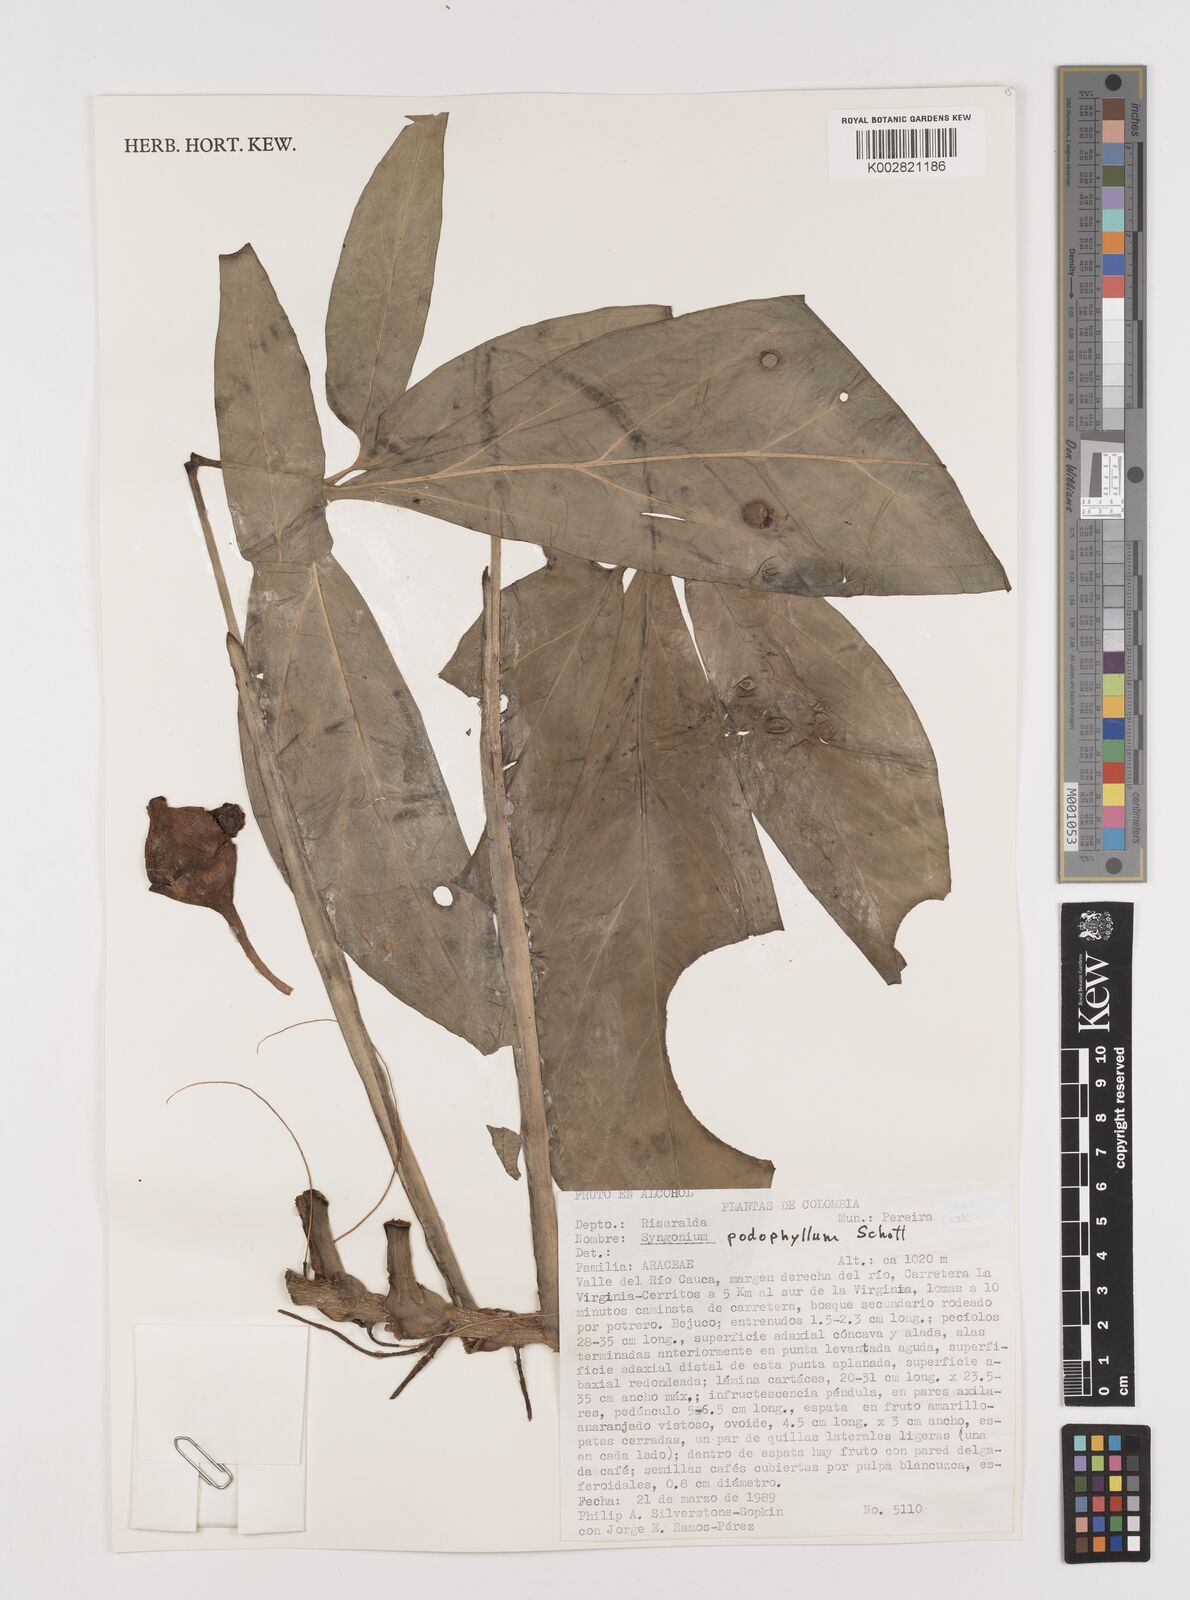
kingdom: Plantae
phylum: Tracheophyta
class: Liliopsida
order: Alismatales
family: Araceae
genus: Syngonium
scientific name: Syngonium podophyllum
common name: American evergreen
